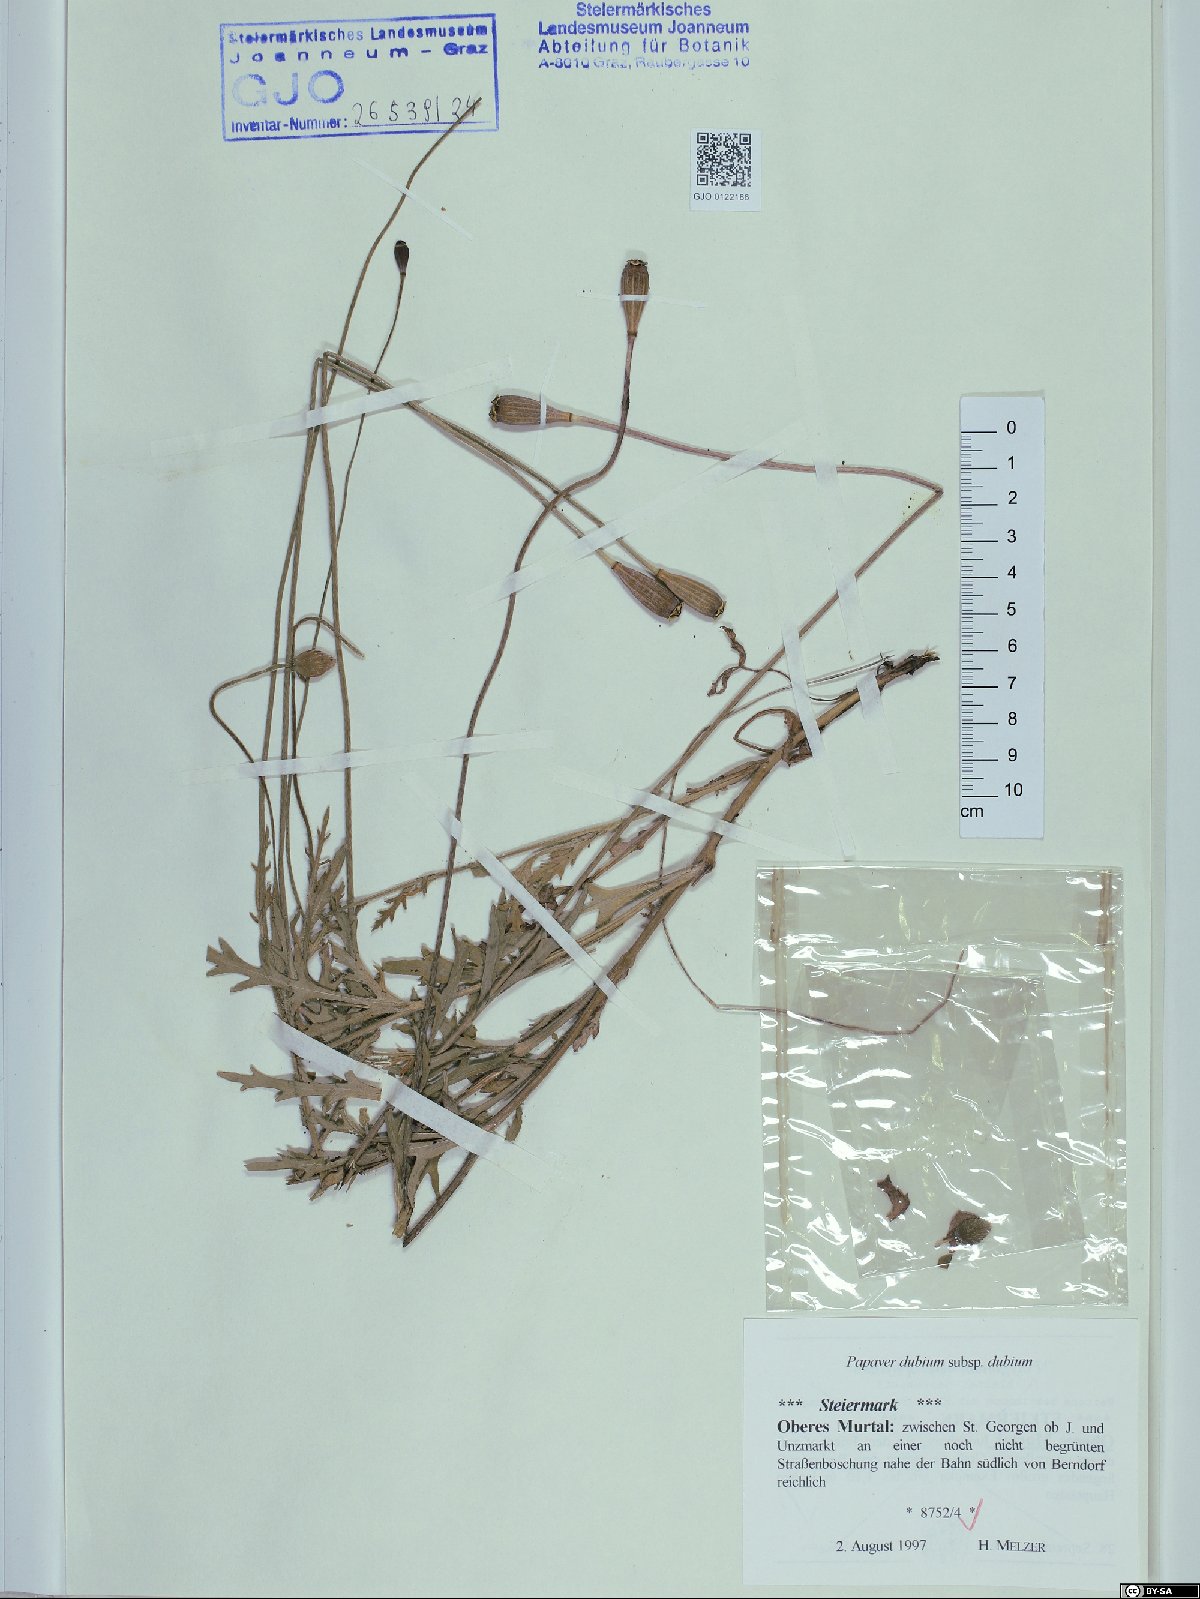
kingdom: Plantae
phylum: Tracheophyta
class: Magnoliopsida
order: Ranunculales
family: Papaveraceae
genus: Papaver
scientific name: Papaver dubium
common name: Long-headed poppy
